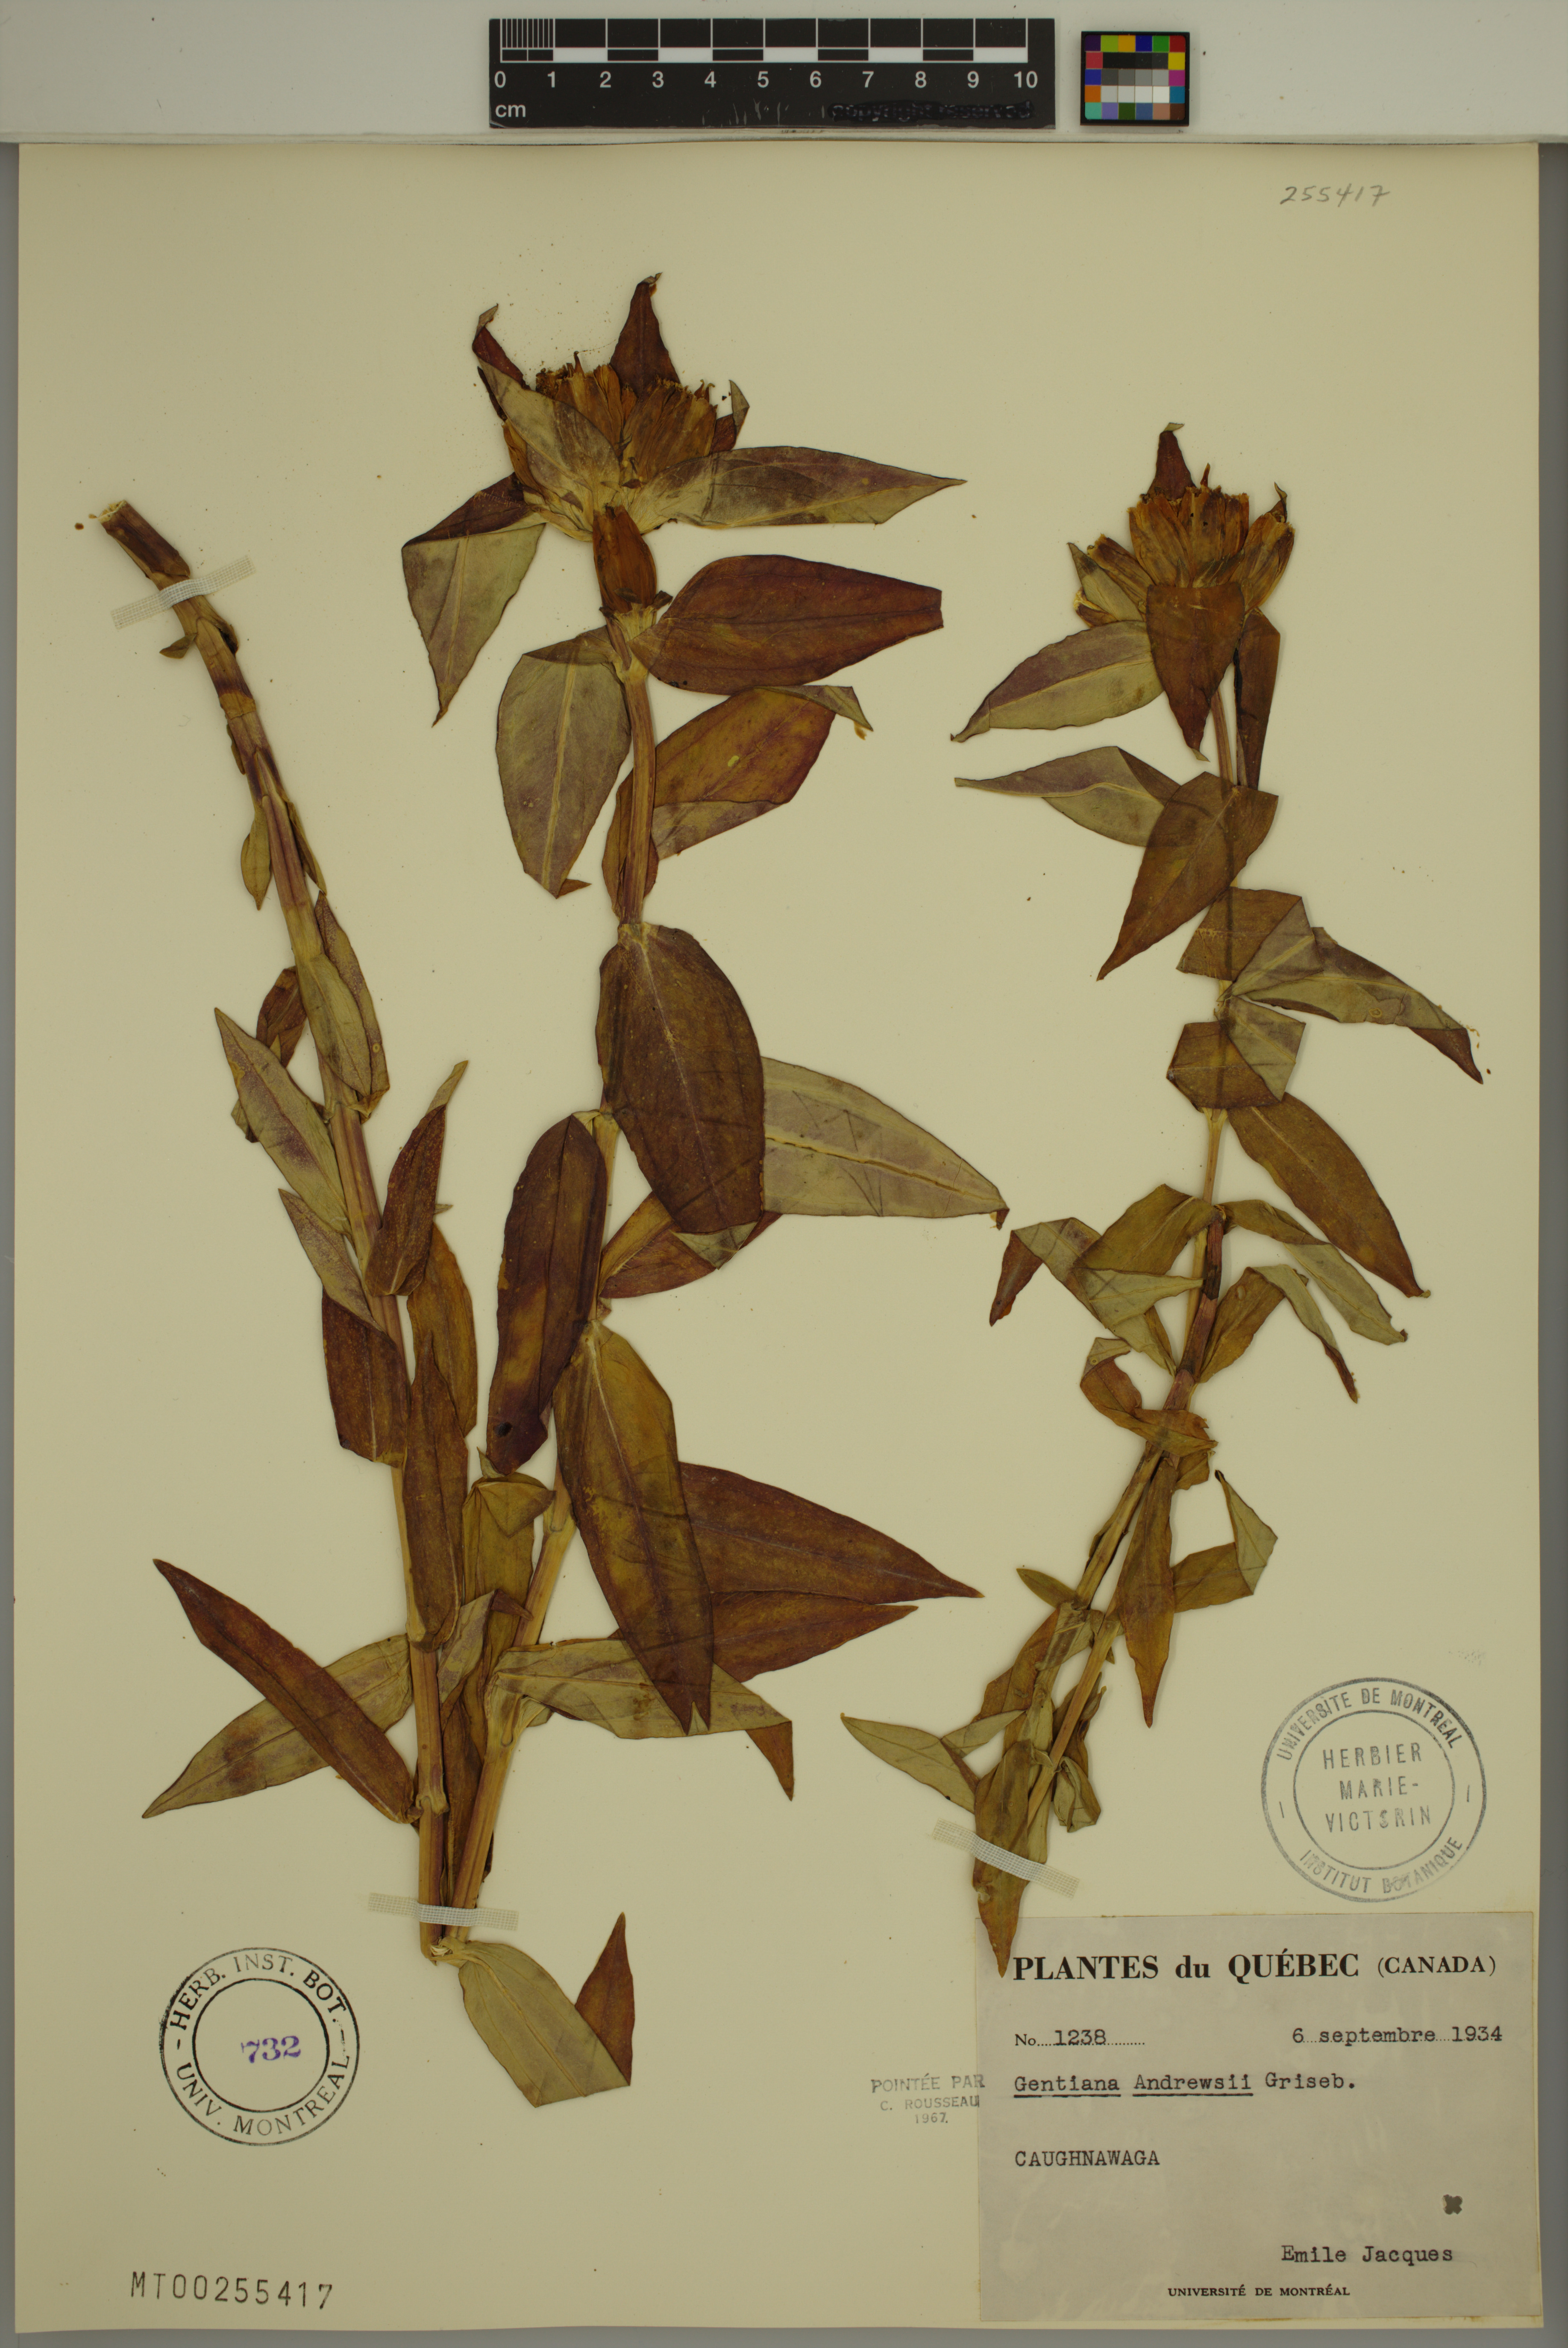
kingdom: Plantae
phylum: Tracheophyta
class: Magnoliopsida
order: Gentianales
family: Gentianaceae
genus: Gentiana
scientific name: Gentiana andrewsii
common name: Bottle gentian
